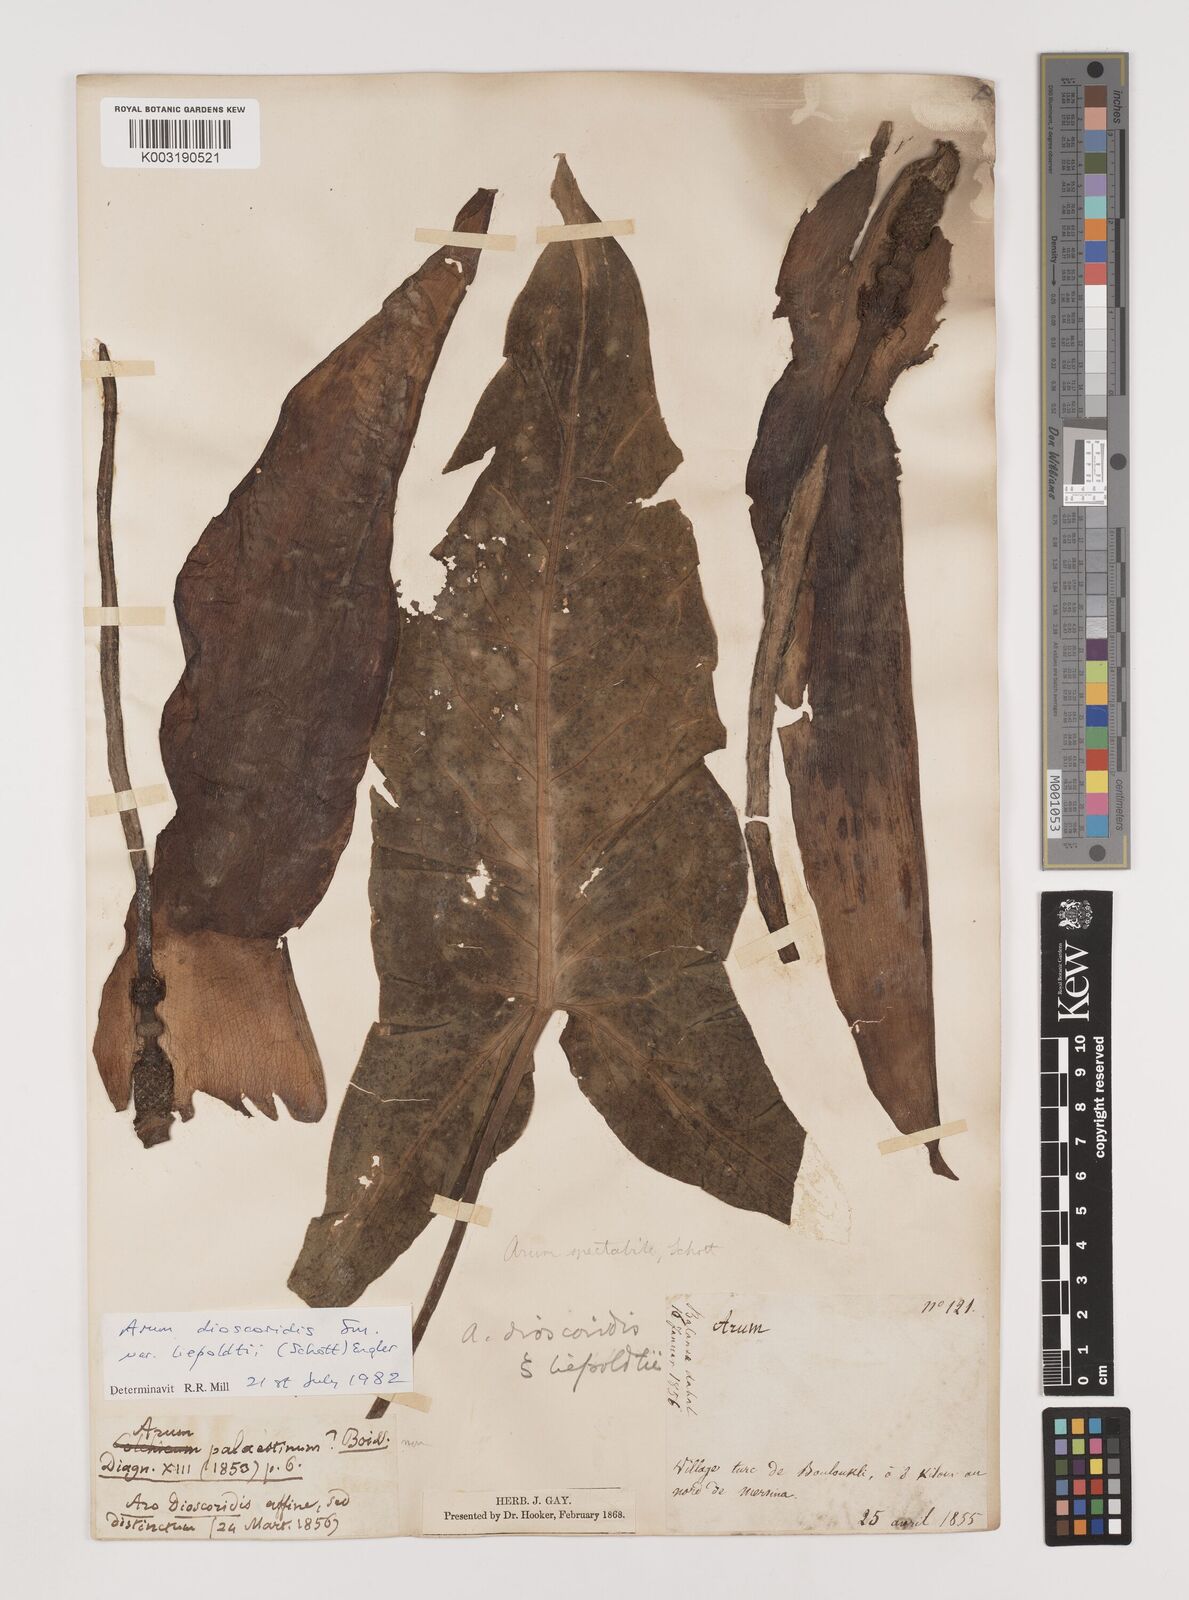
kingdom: Plantae
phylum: Tracheophyta
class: Liliopsida
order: Alismatales
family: Araceae
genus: Arum
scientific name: Arum dioscoridis
